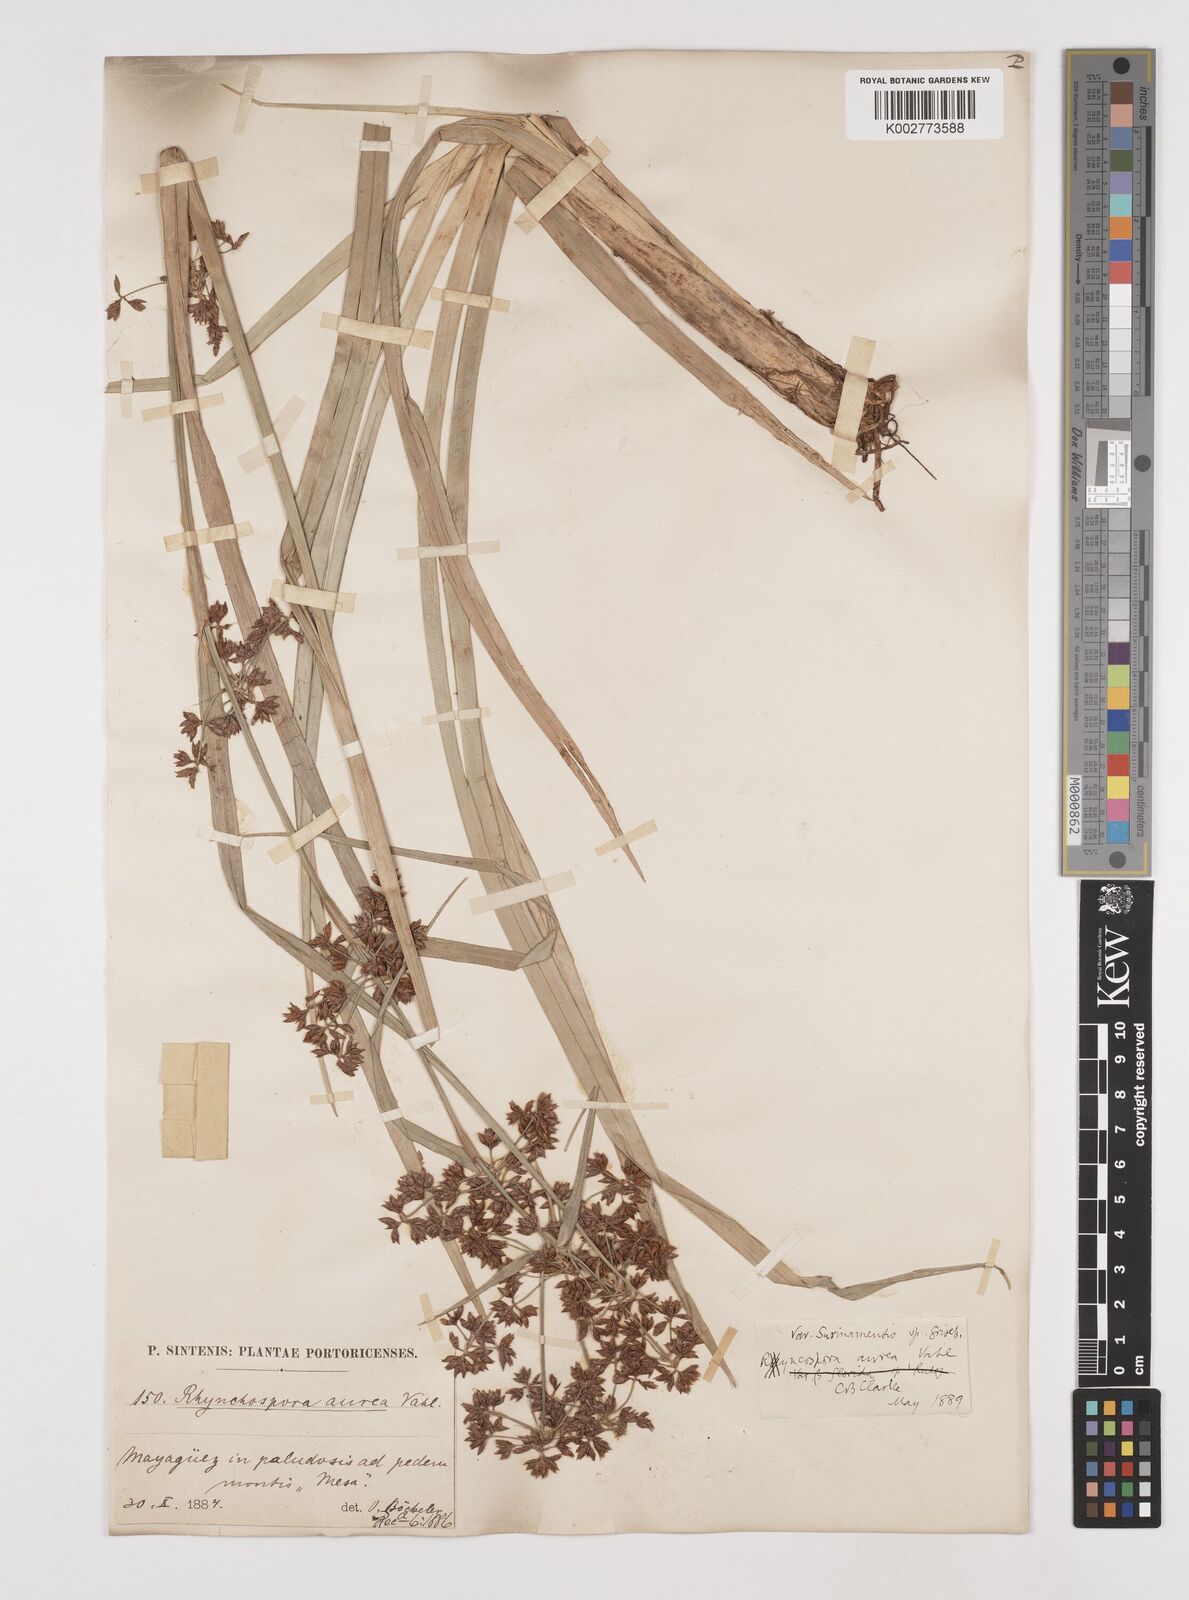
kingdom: Plantae
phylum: Tracheophyta
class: Liliopsida
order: Poales
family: Cyperaceae
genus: Rhynchospora
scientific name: Rhynchospora corymbosa
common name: Golden beak sedge
